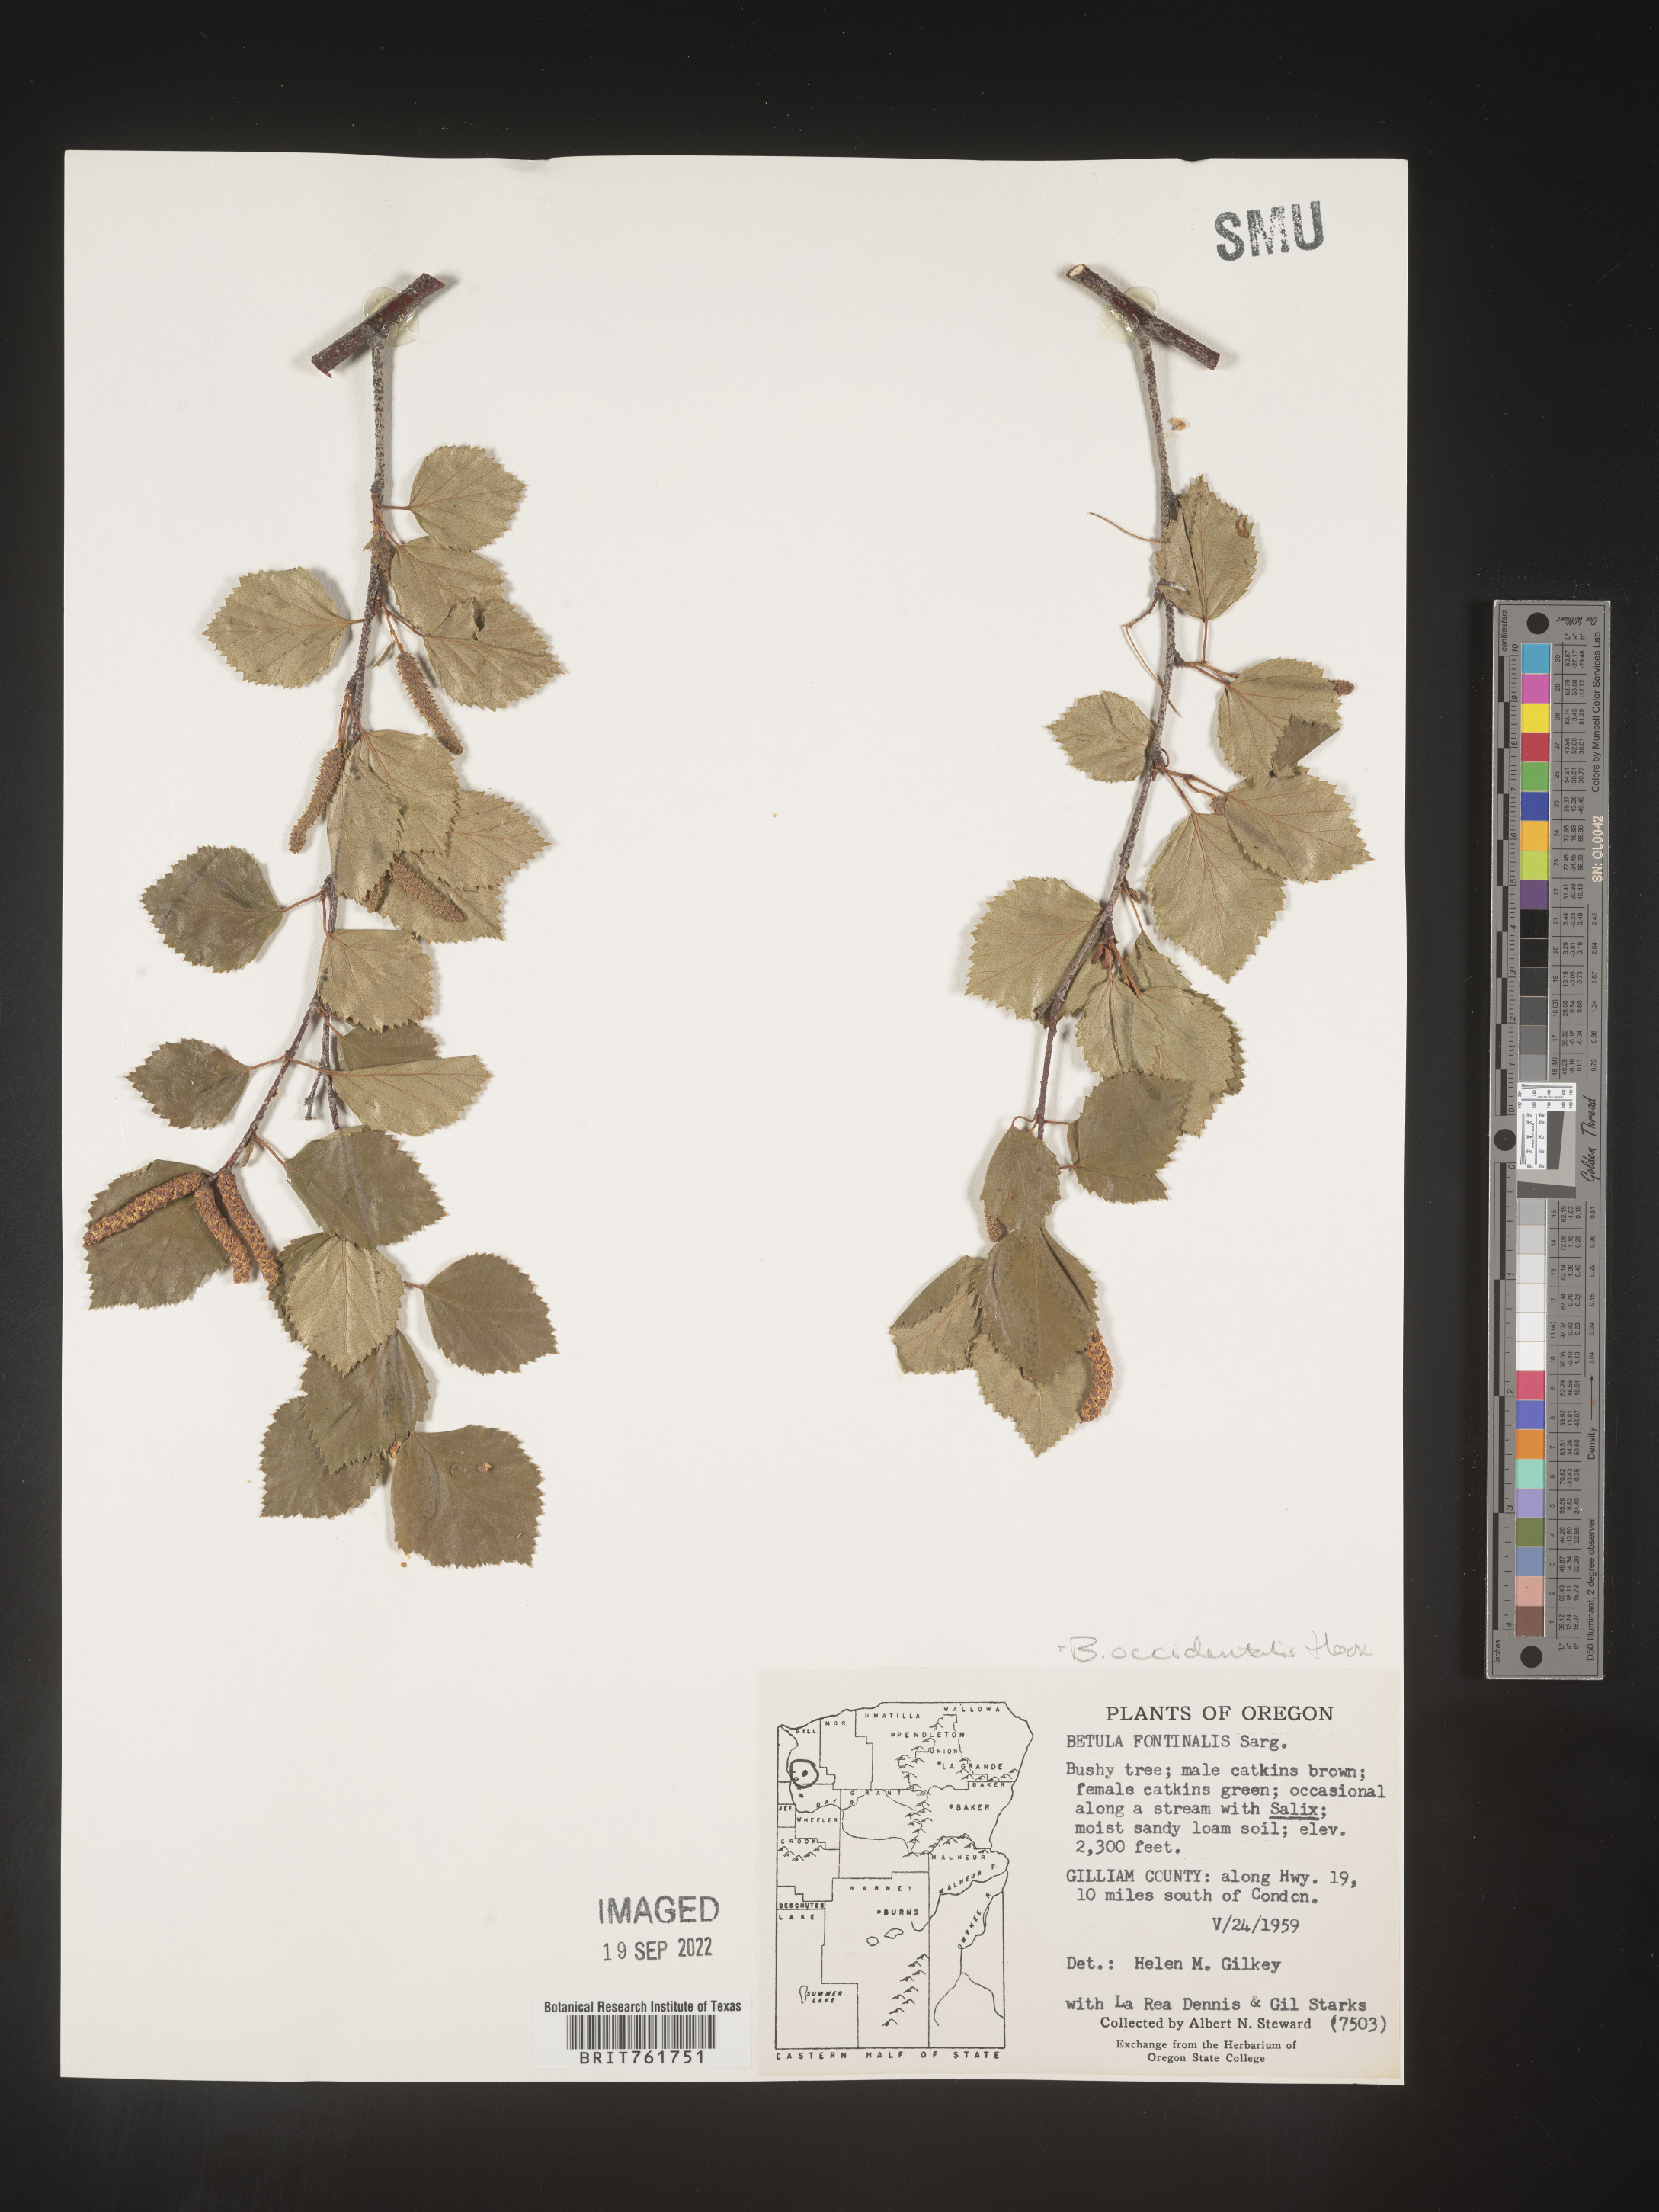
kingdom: Plantae
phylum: Tracheophyta
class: Magnoliopsida
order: Fagales
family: Betulaceae
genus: Betula
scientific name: Betula occidentalis
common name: River birch
